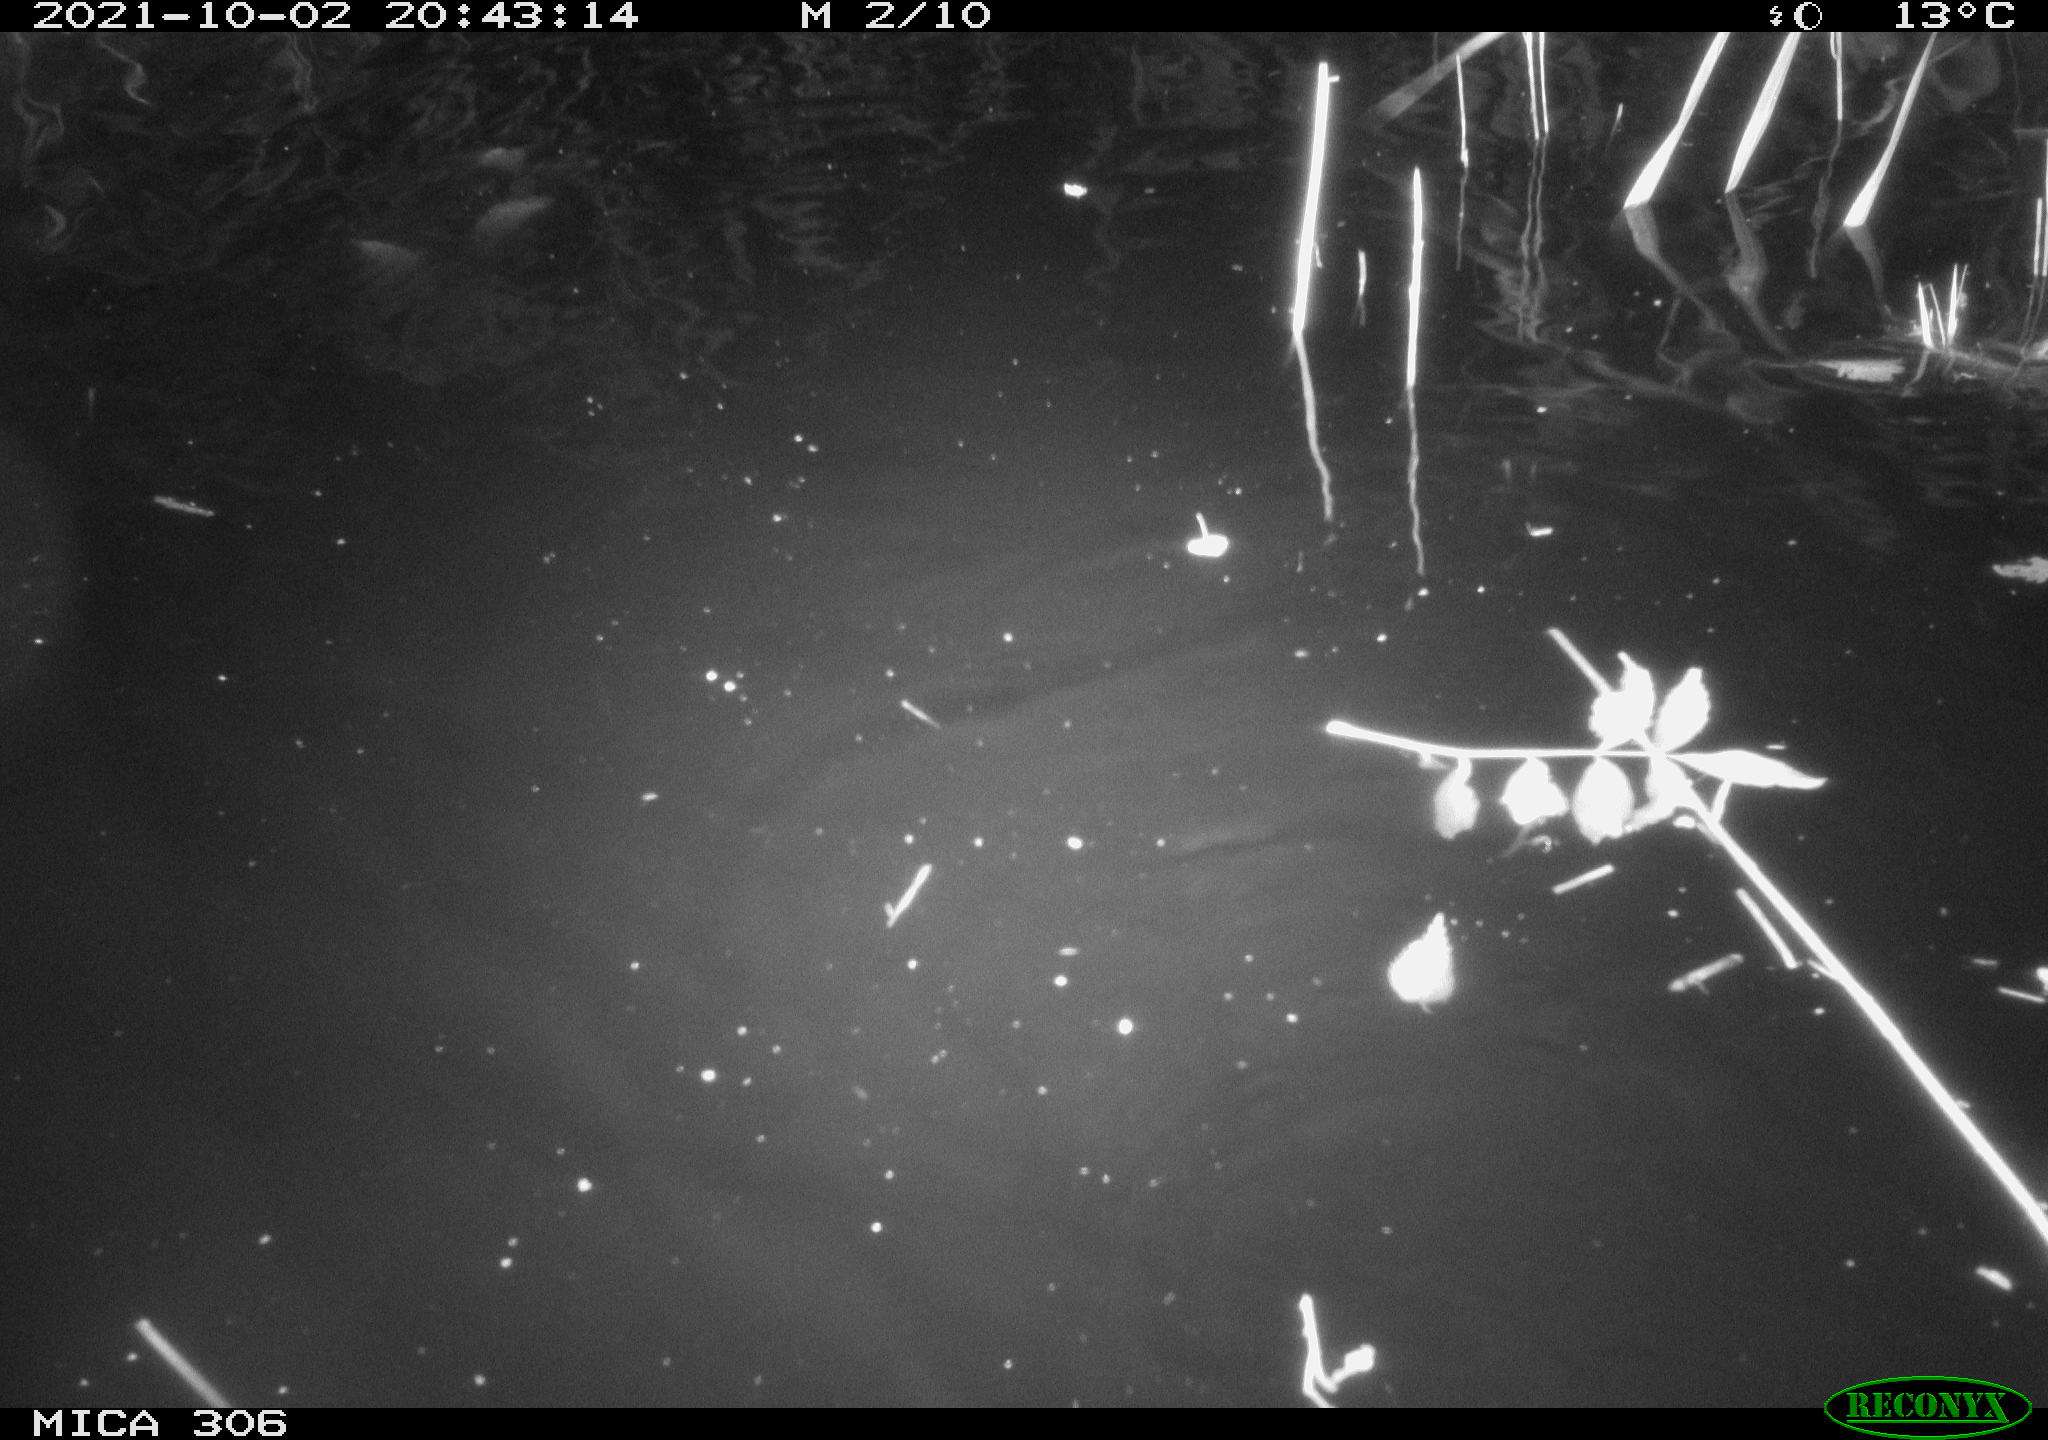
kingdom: Animalia
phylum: Chordata
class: Mammalia
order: Rodentia
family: Cricetidae
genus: Ondatra
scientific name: Ondatra zibethicus
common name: Muskrat
